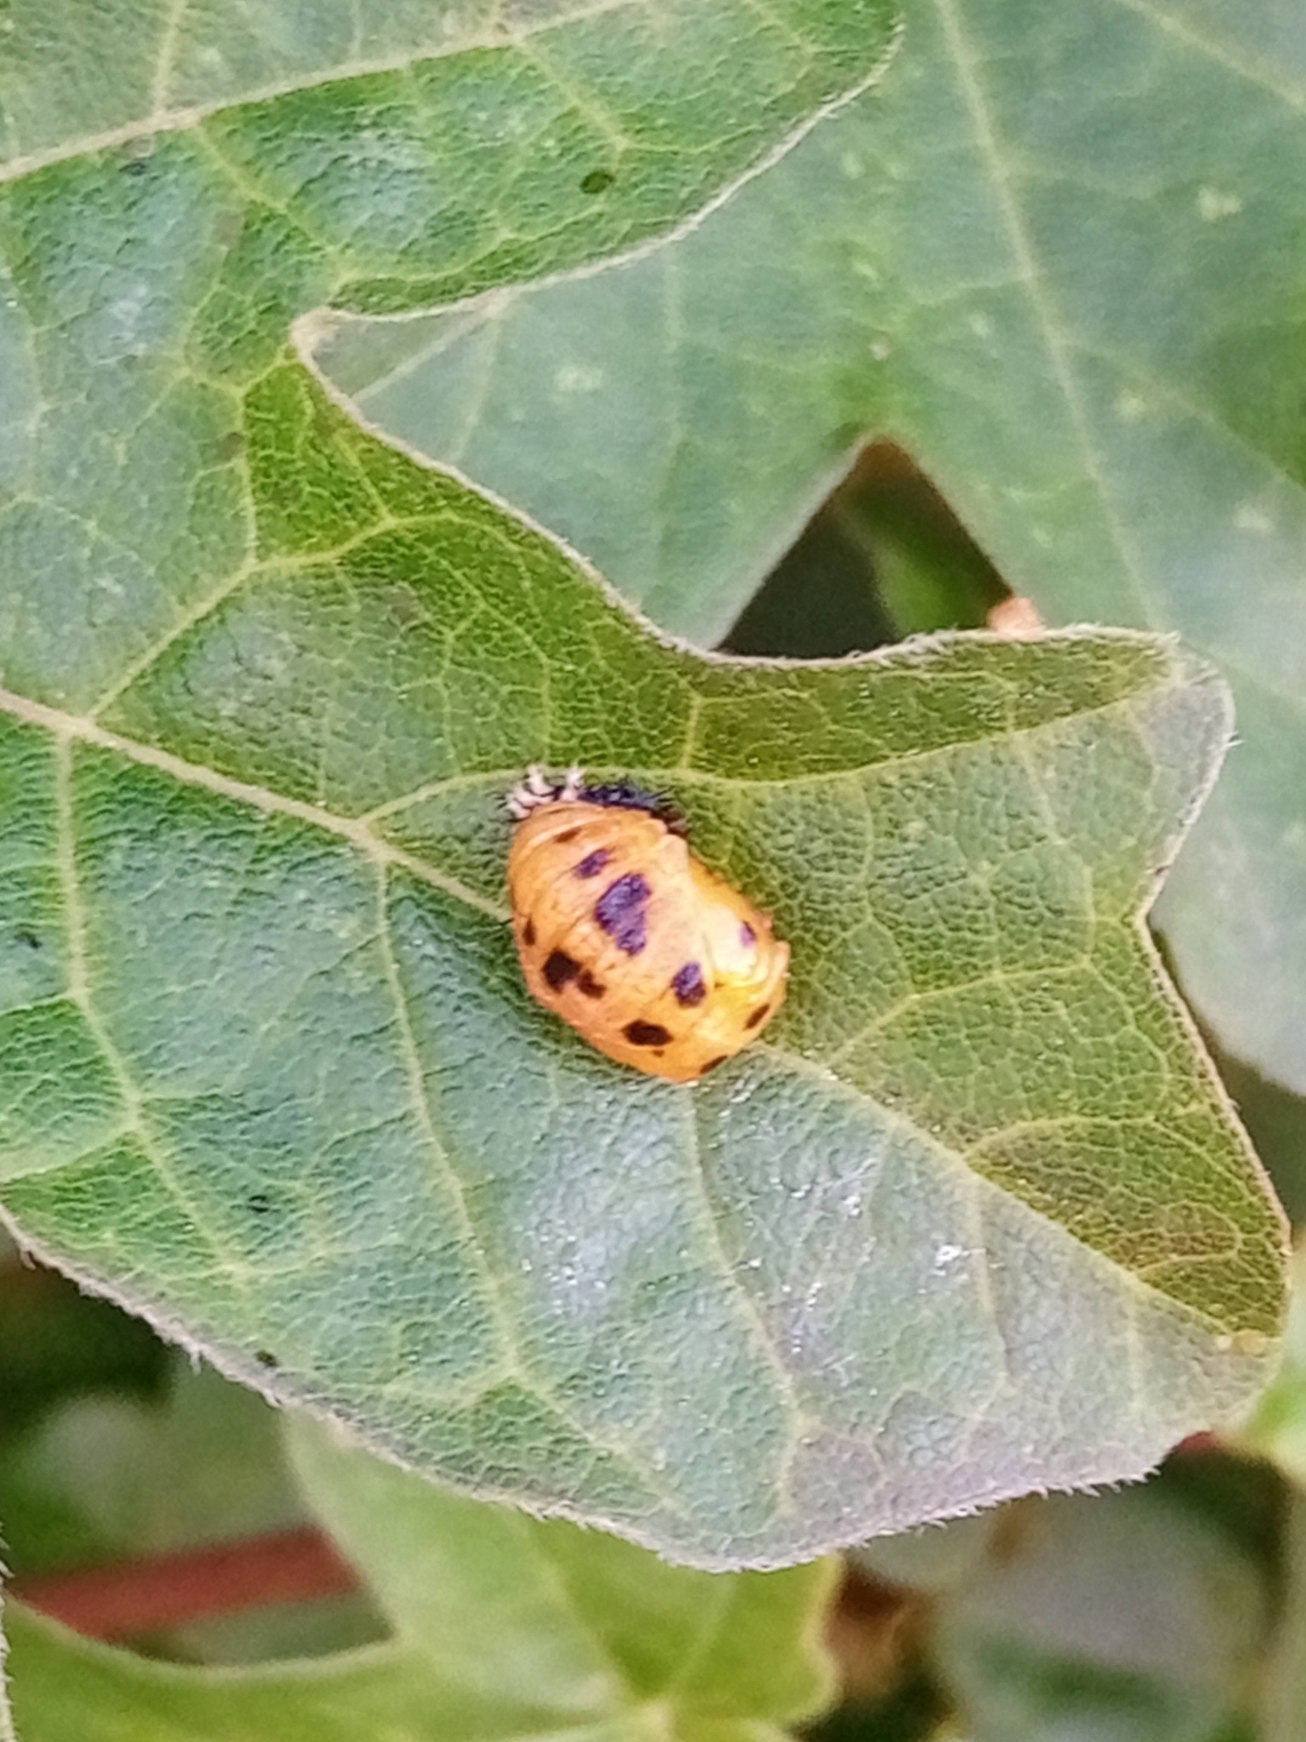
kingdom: Animalia
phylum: Arthropoda
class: Insecta
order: Coleoptera
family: Coccinellidae
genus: Harmonia
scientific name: Harmonia axyridis
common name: Harlekinmariehøne
